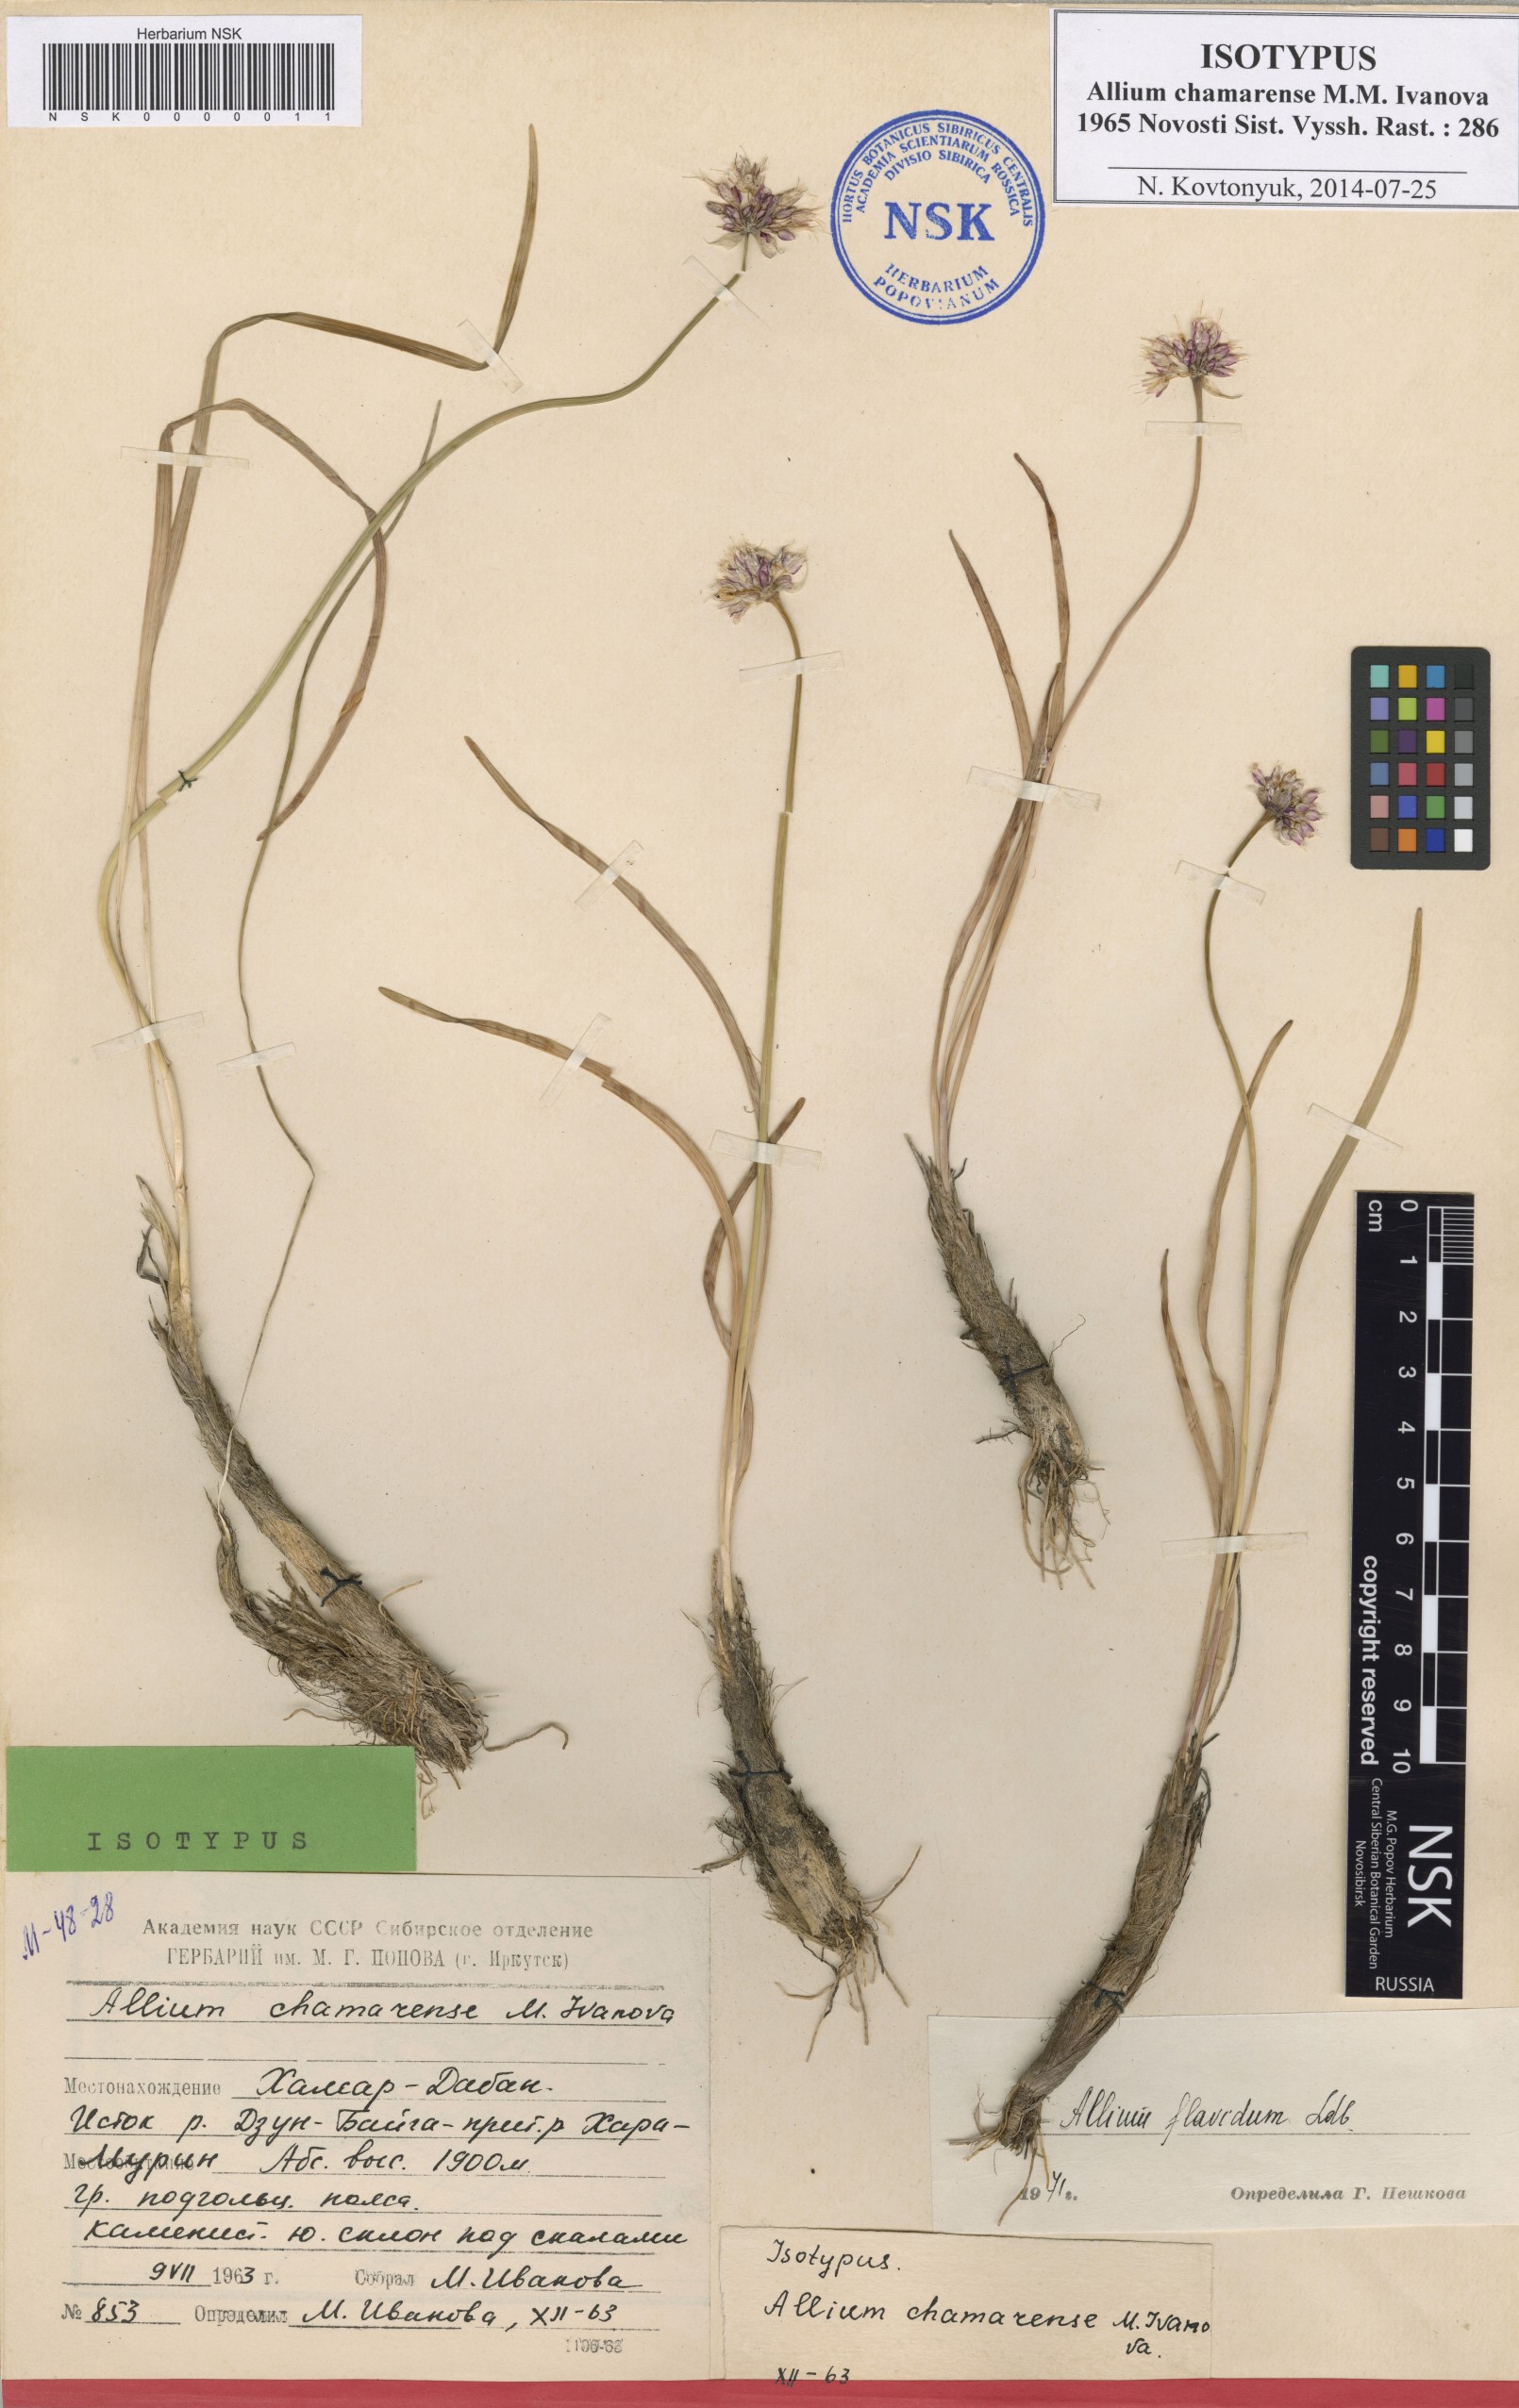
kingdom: Plantae
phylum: Tracheophyta
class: Liliopsida
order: Asparagales
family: Amaryllidaceae
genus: Allium
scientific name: Allium chamarense
